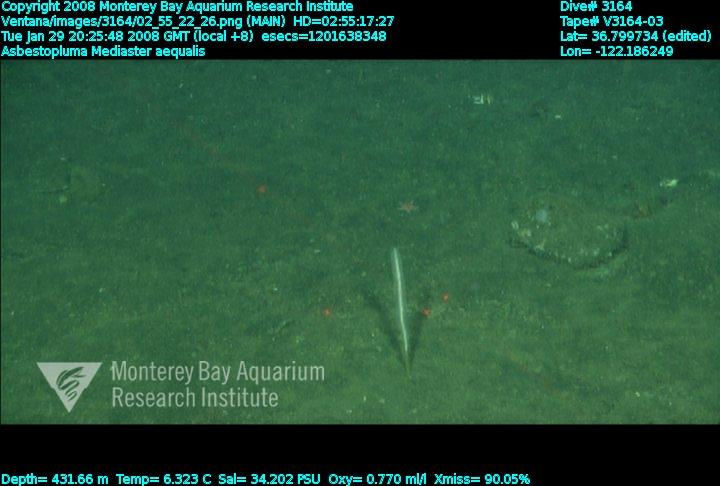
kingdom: Animalia
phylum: Porifera
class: Demospongiae
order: Poecilosclerida
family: Cladorhizidae
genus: Asbestopluma
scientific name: Asbestopluma
